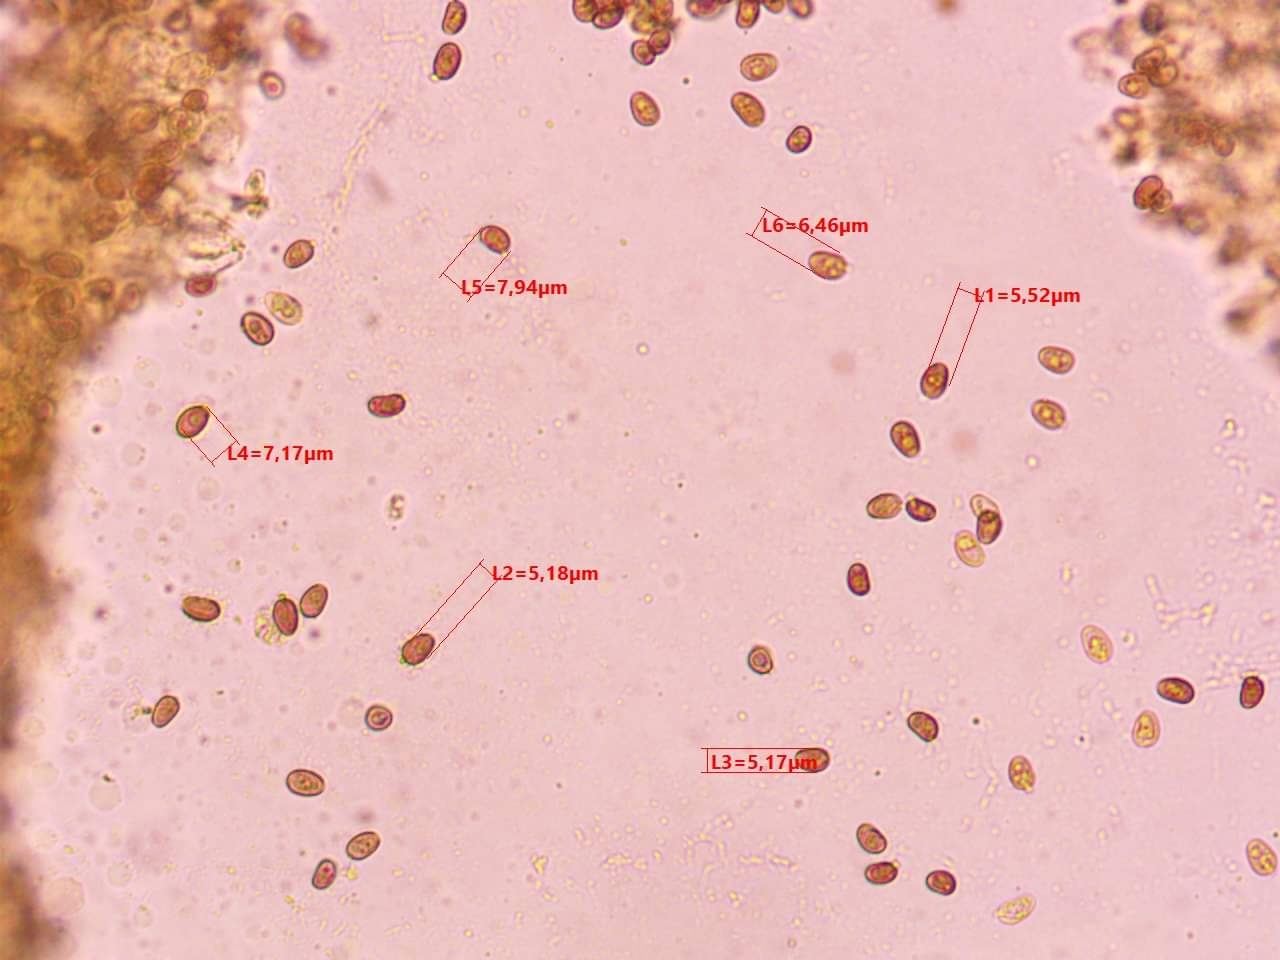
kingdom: Fungi
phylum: Basidiomycota
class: Agaricomycetes
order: Agaricales
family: Psathyrellaceae
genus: Coprinellus
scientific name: Coprinellus xanthothrix
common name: gultrådet blækhat
